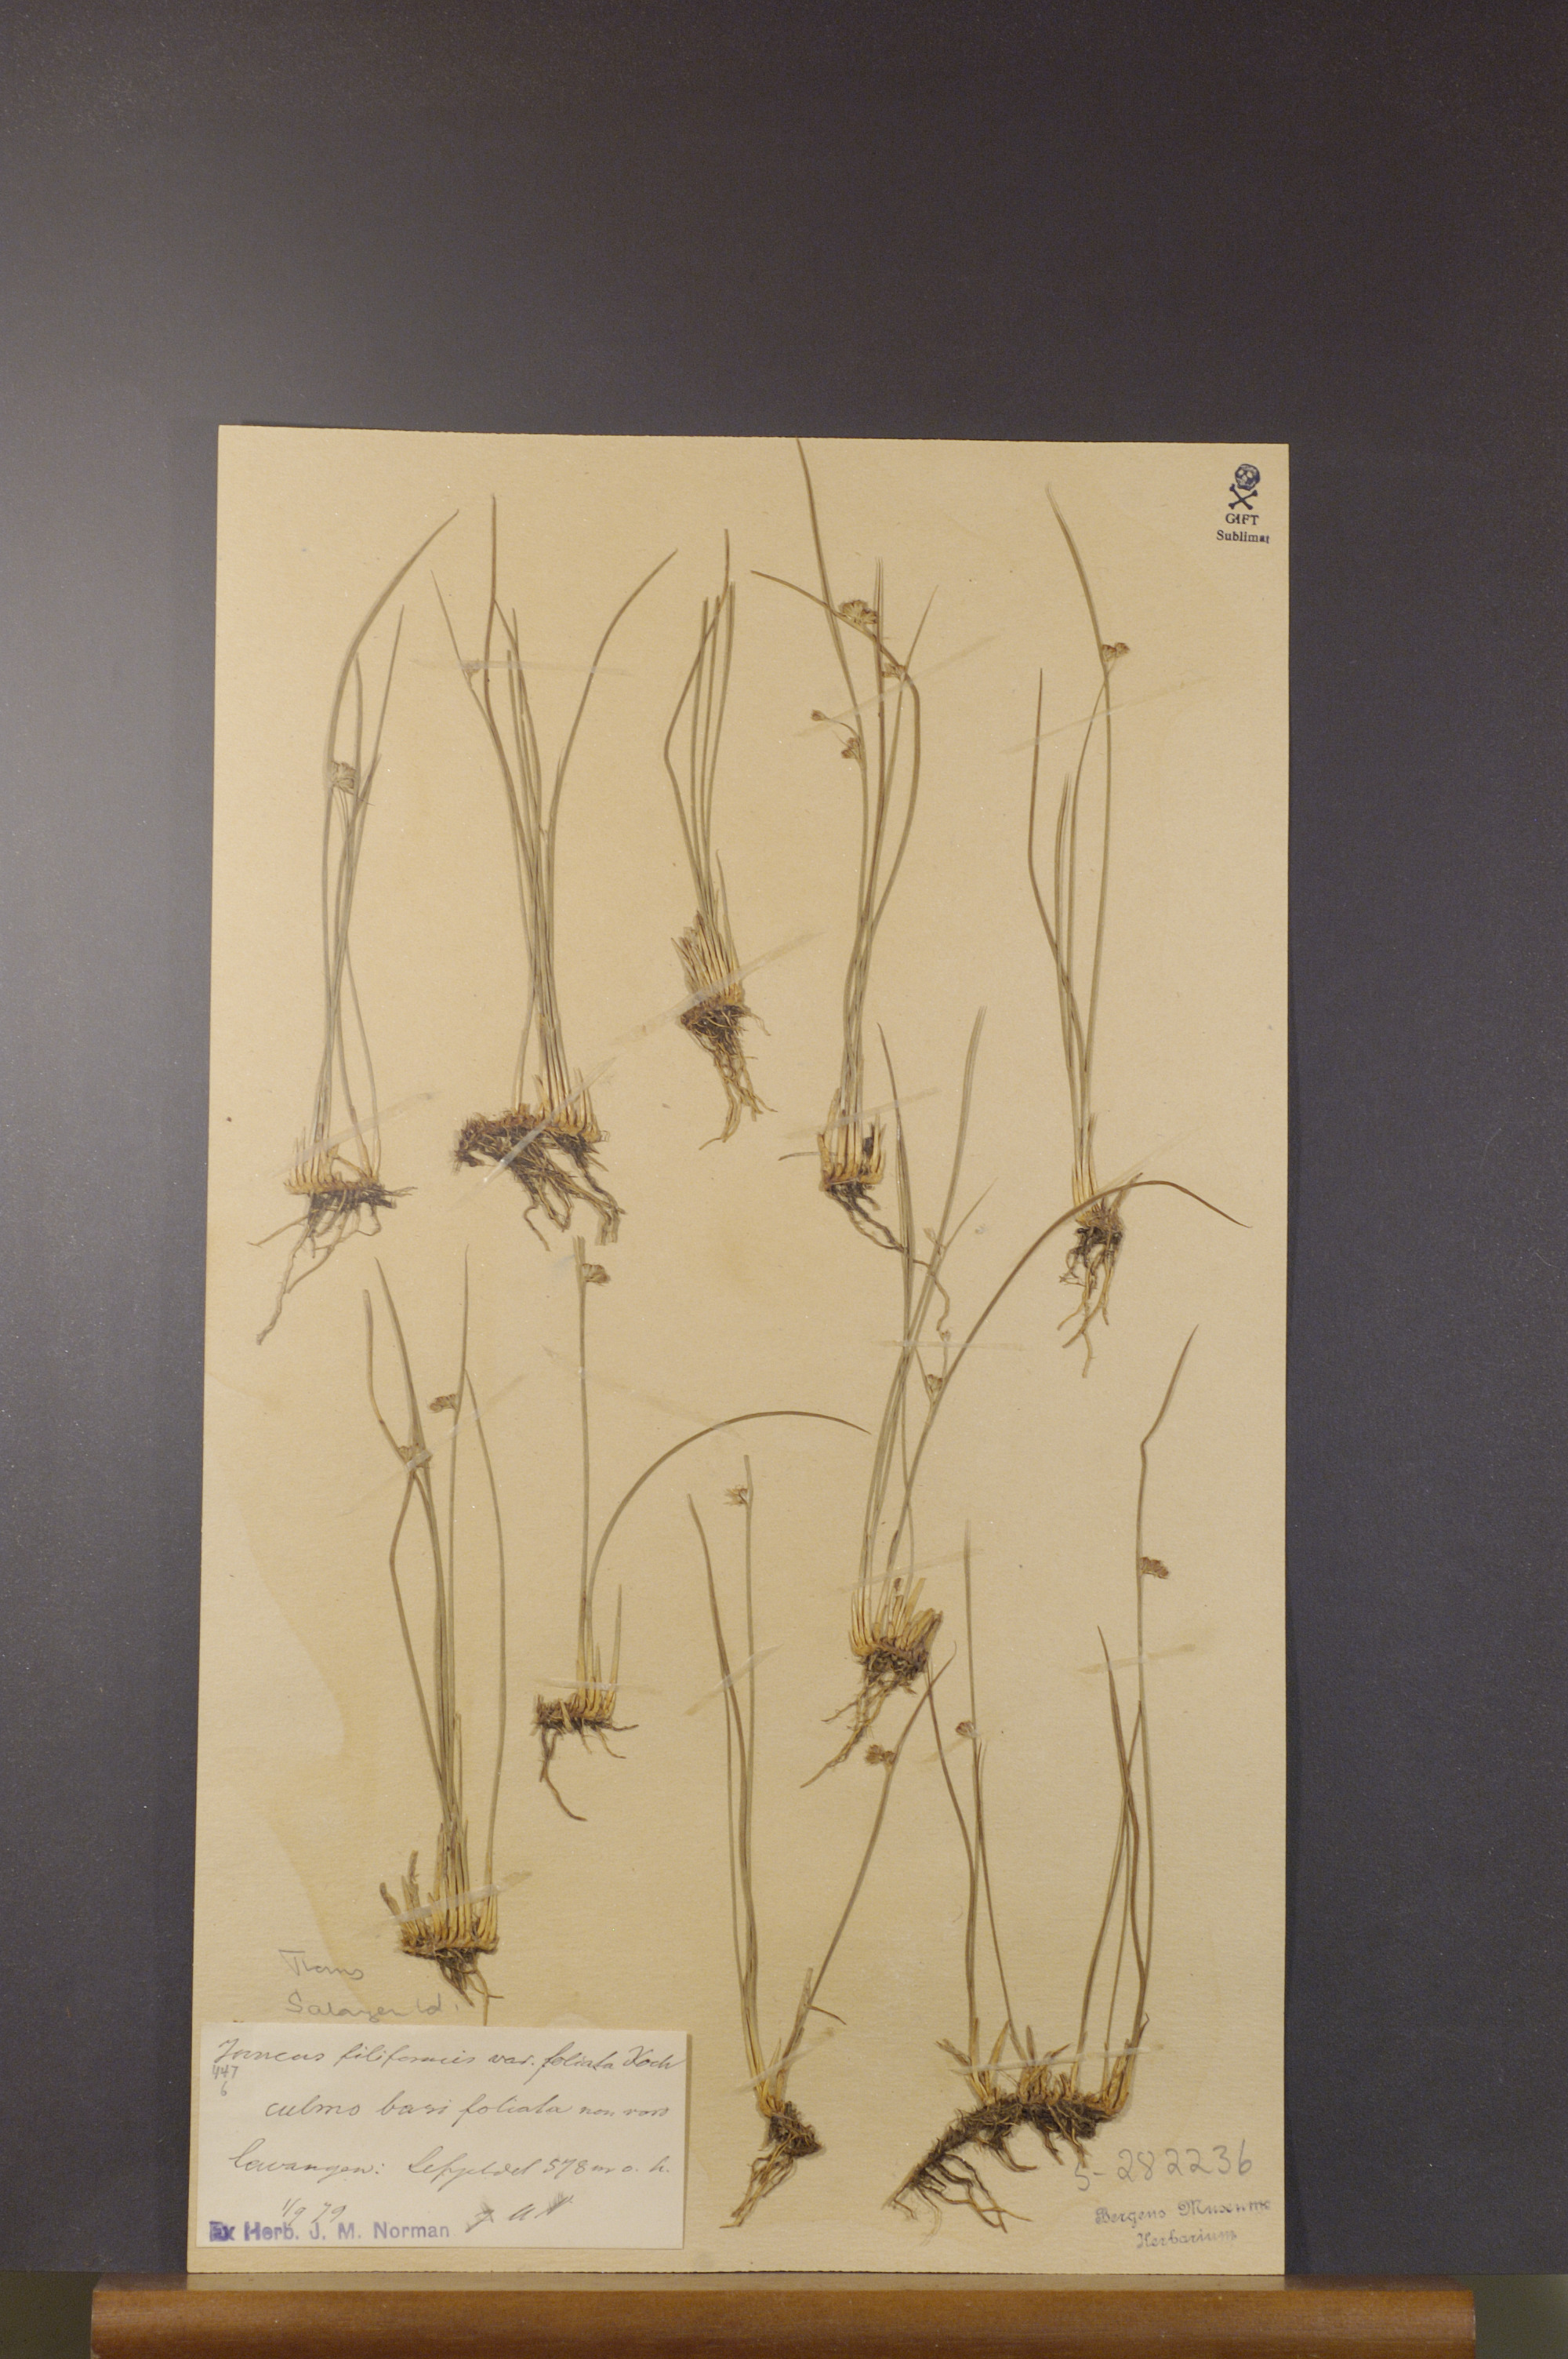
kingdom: Plantae
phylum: Tracheophyta
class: Liliopsida
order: Poales
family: Juncaceae
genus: Juncus
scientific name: Juncus filiformis
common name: Thread rush
